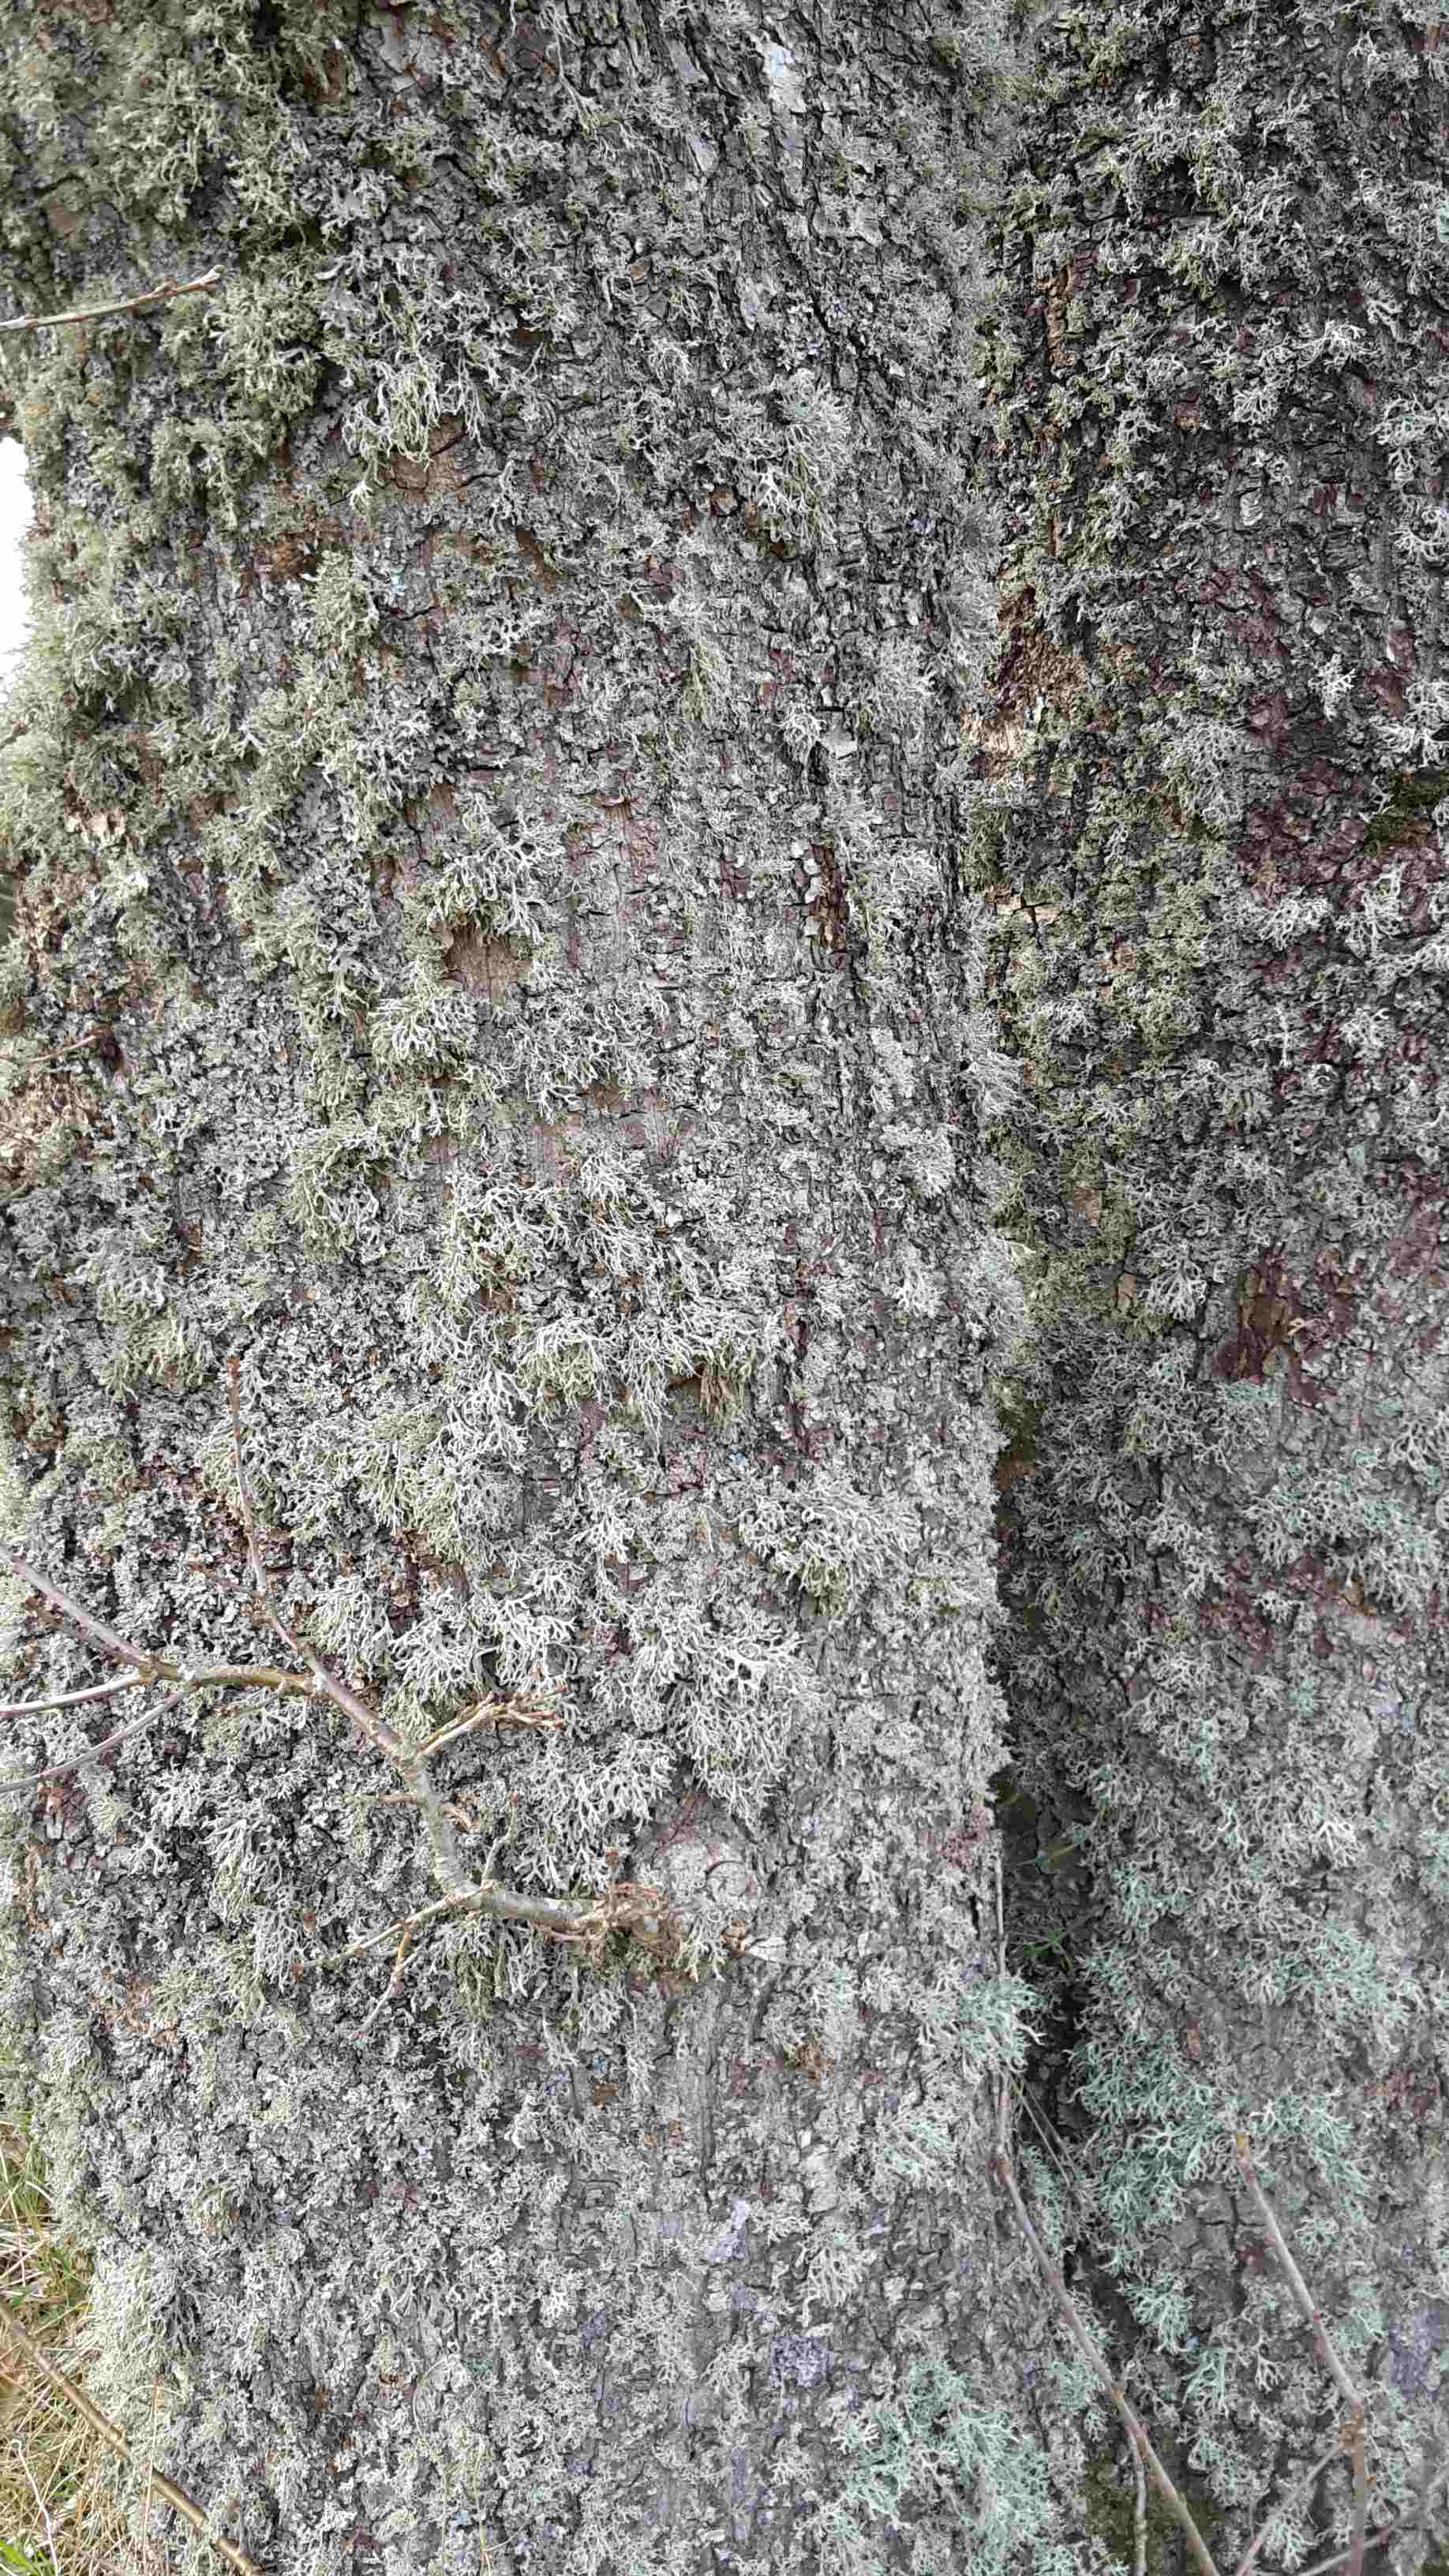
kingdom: Fungi
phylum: Ascomycota
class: Lecanoromycetes
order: Lecanorales
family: Parmeliaceae
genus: Evernia
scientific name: Evernia prunastri
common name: almindelig slåenlav
